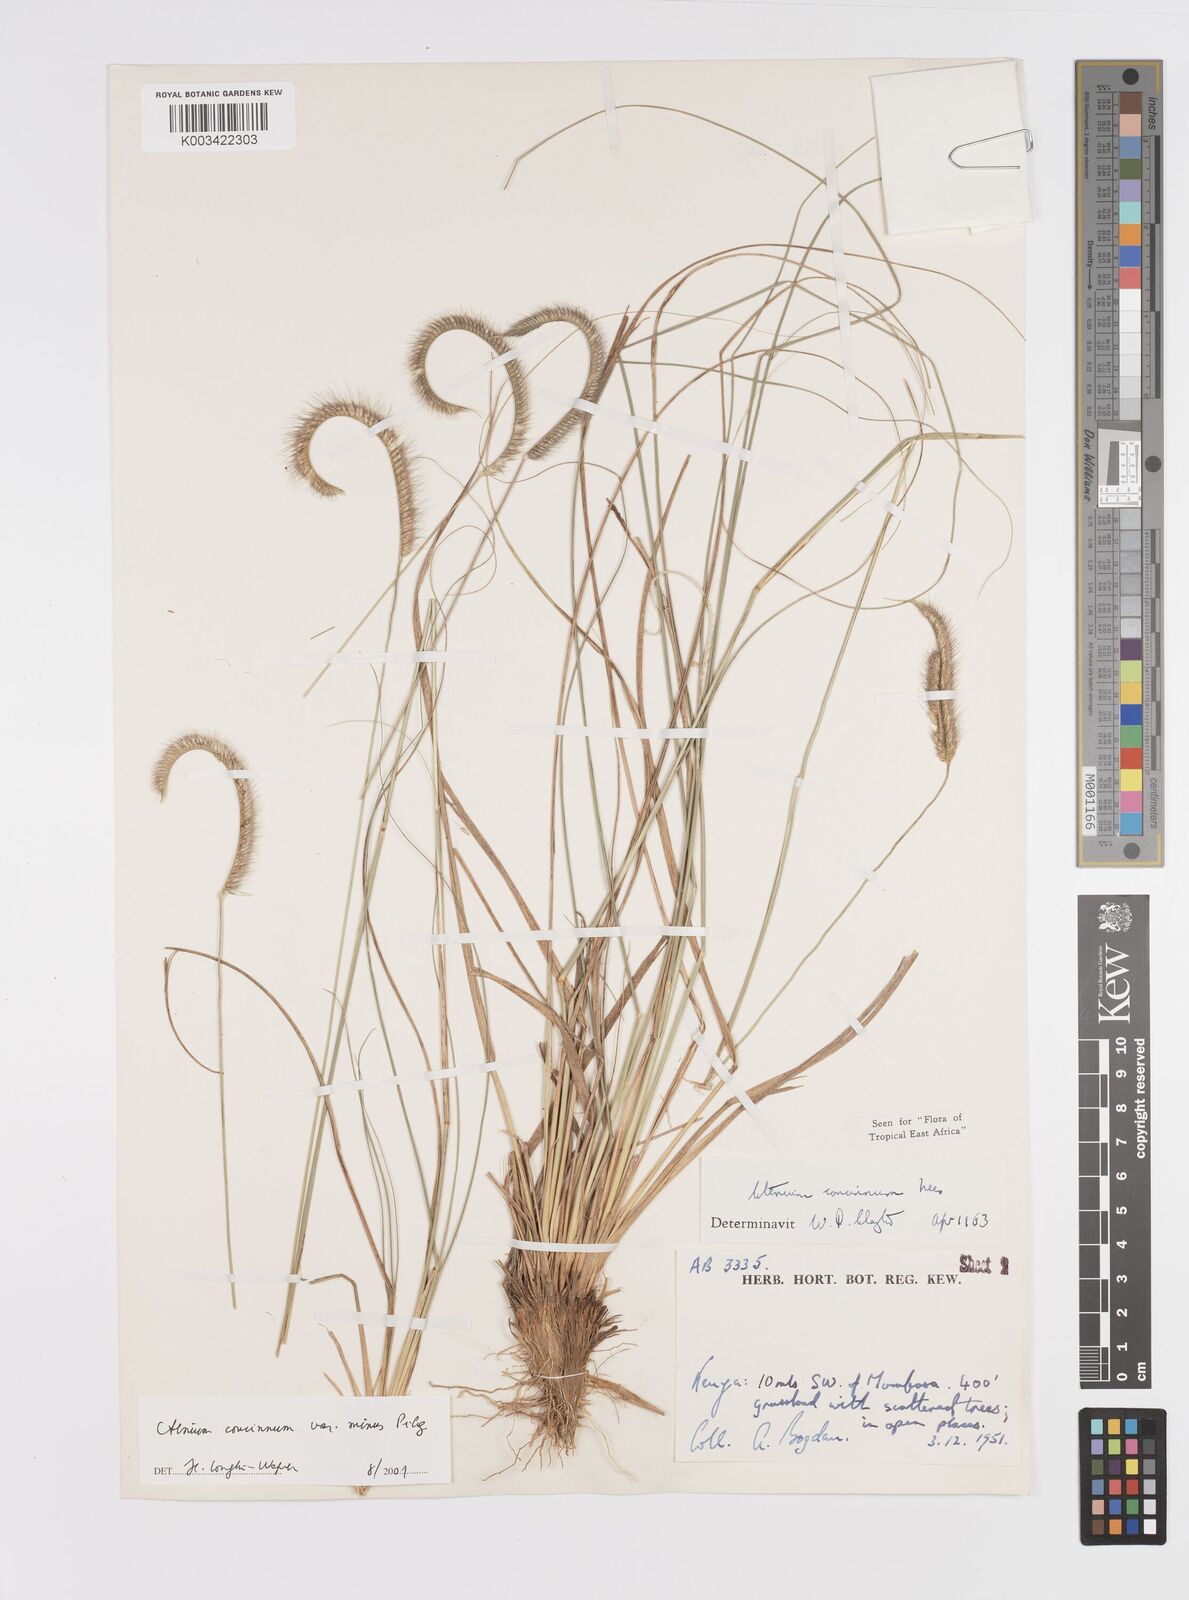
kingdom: Plantae
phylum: Tracheophyta
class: Liliopsida
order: Poales
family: Poaceae
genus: Ctenium
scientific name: Ctenium concinnum
